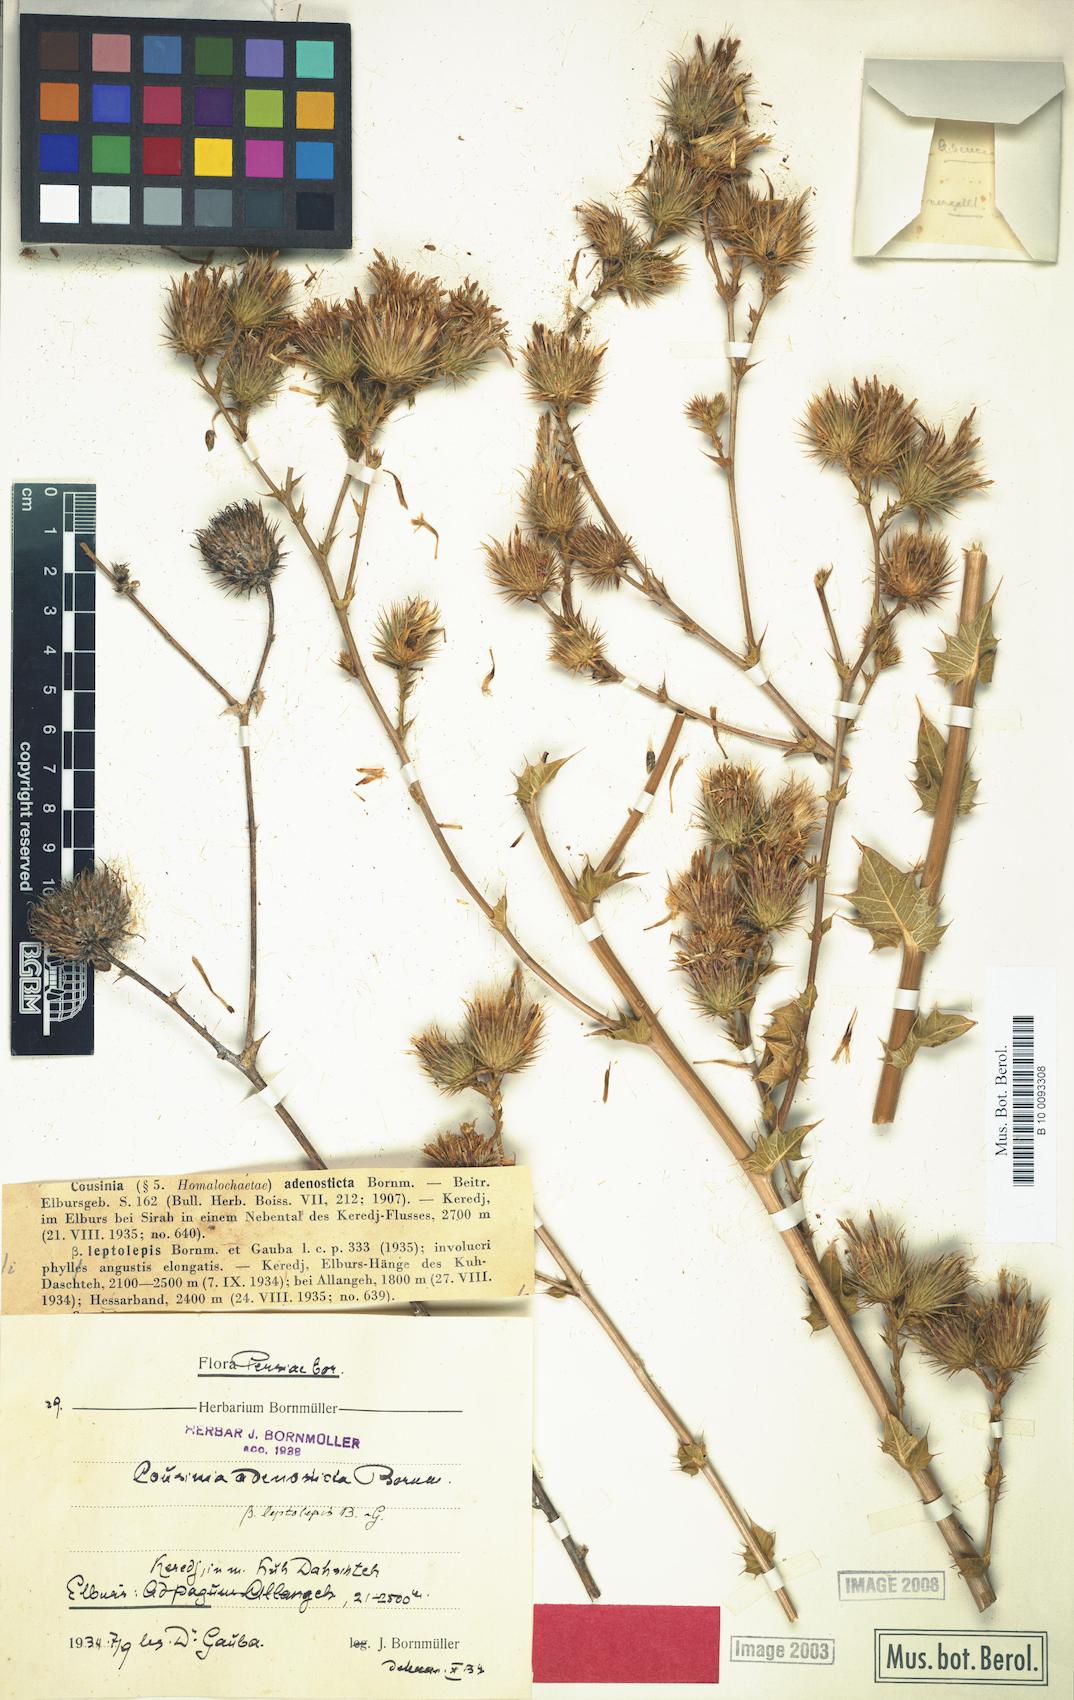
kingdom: Plantae
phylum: Tracheophyta
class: Magnoliopsida
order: Asterales
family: Asteraceae
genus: Cousinia
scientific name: Cousinia leptolepis
